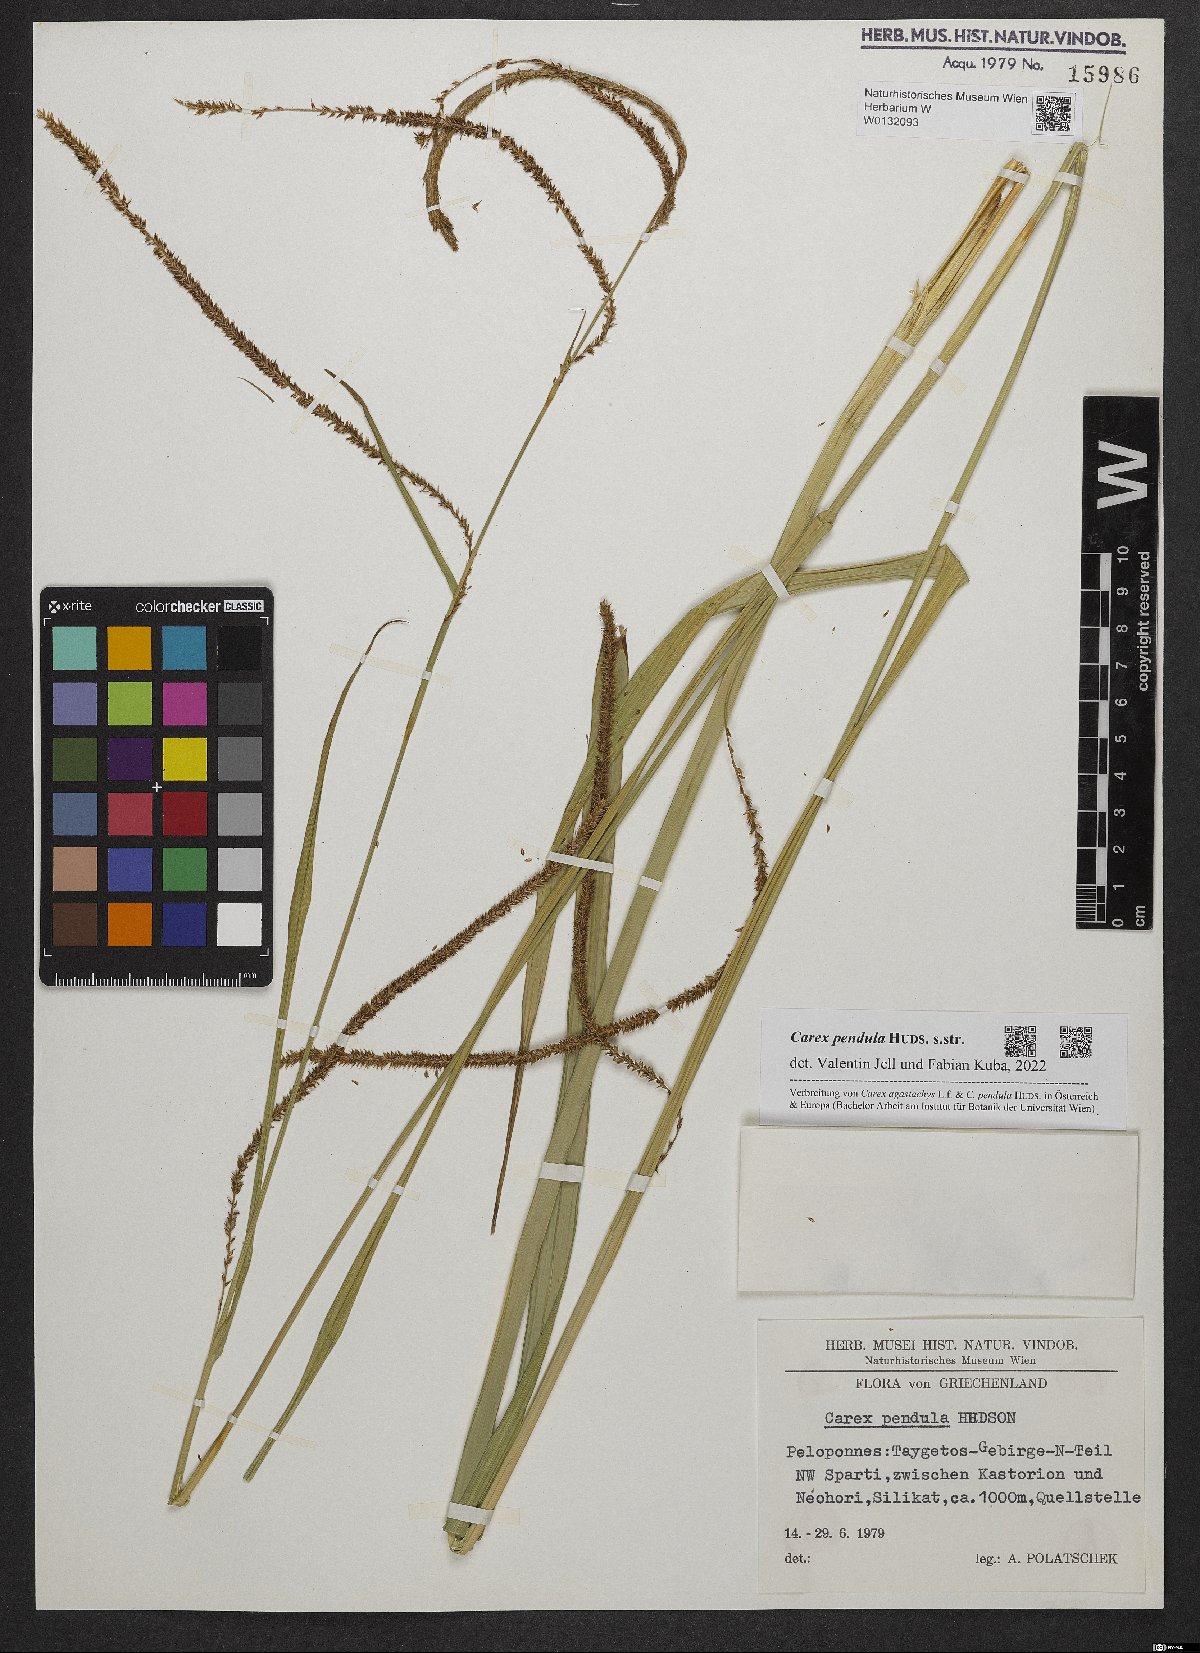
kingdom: Plantae
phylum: Tracheophyta
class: Liliopsida
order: Poales
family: Cyperaceae
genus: Carex
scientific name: Carex pendula
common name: Pendulous sedge
